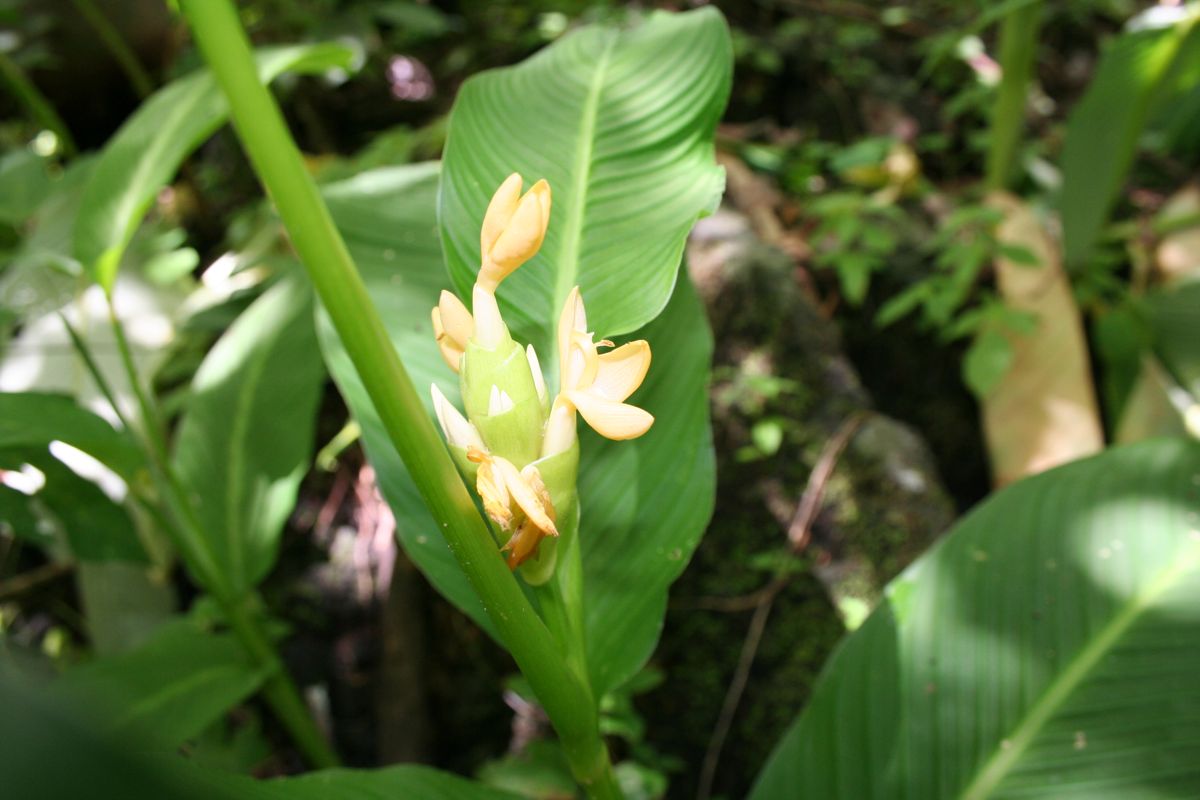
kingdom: Plantae
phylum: Tracheophyta
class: Liliopsida
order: Zingiberales
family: Marantaceae
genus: Goeppertia
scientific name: Goeppertia macrosepala
